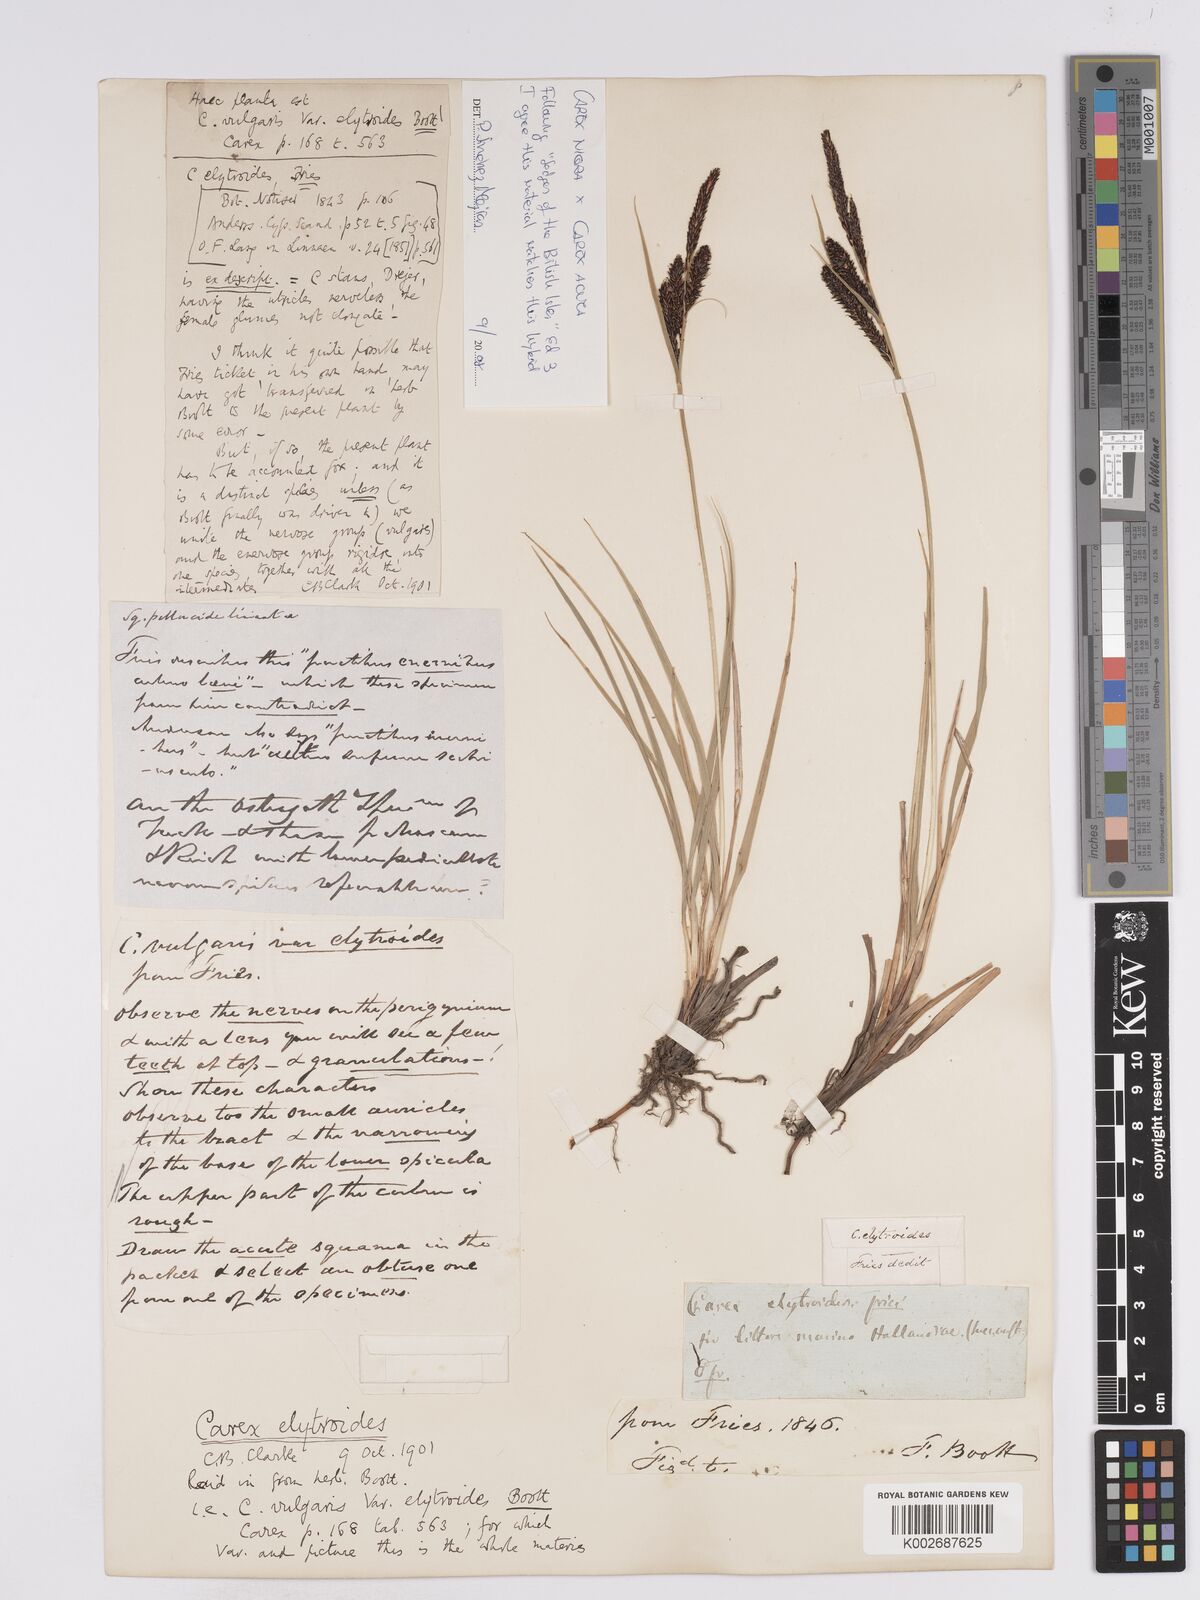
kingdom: Plantae
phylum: Tracheophyta
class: Liliopsida
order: Poales
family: Cyperaceae
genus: Carex
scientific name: Carex nigra
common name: Common sedge
